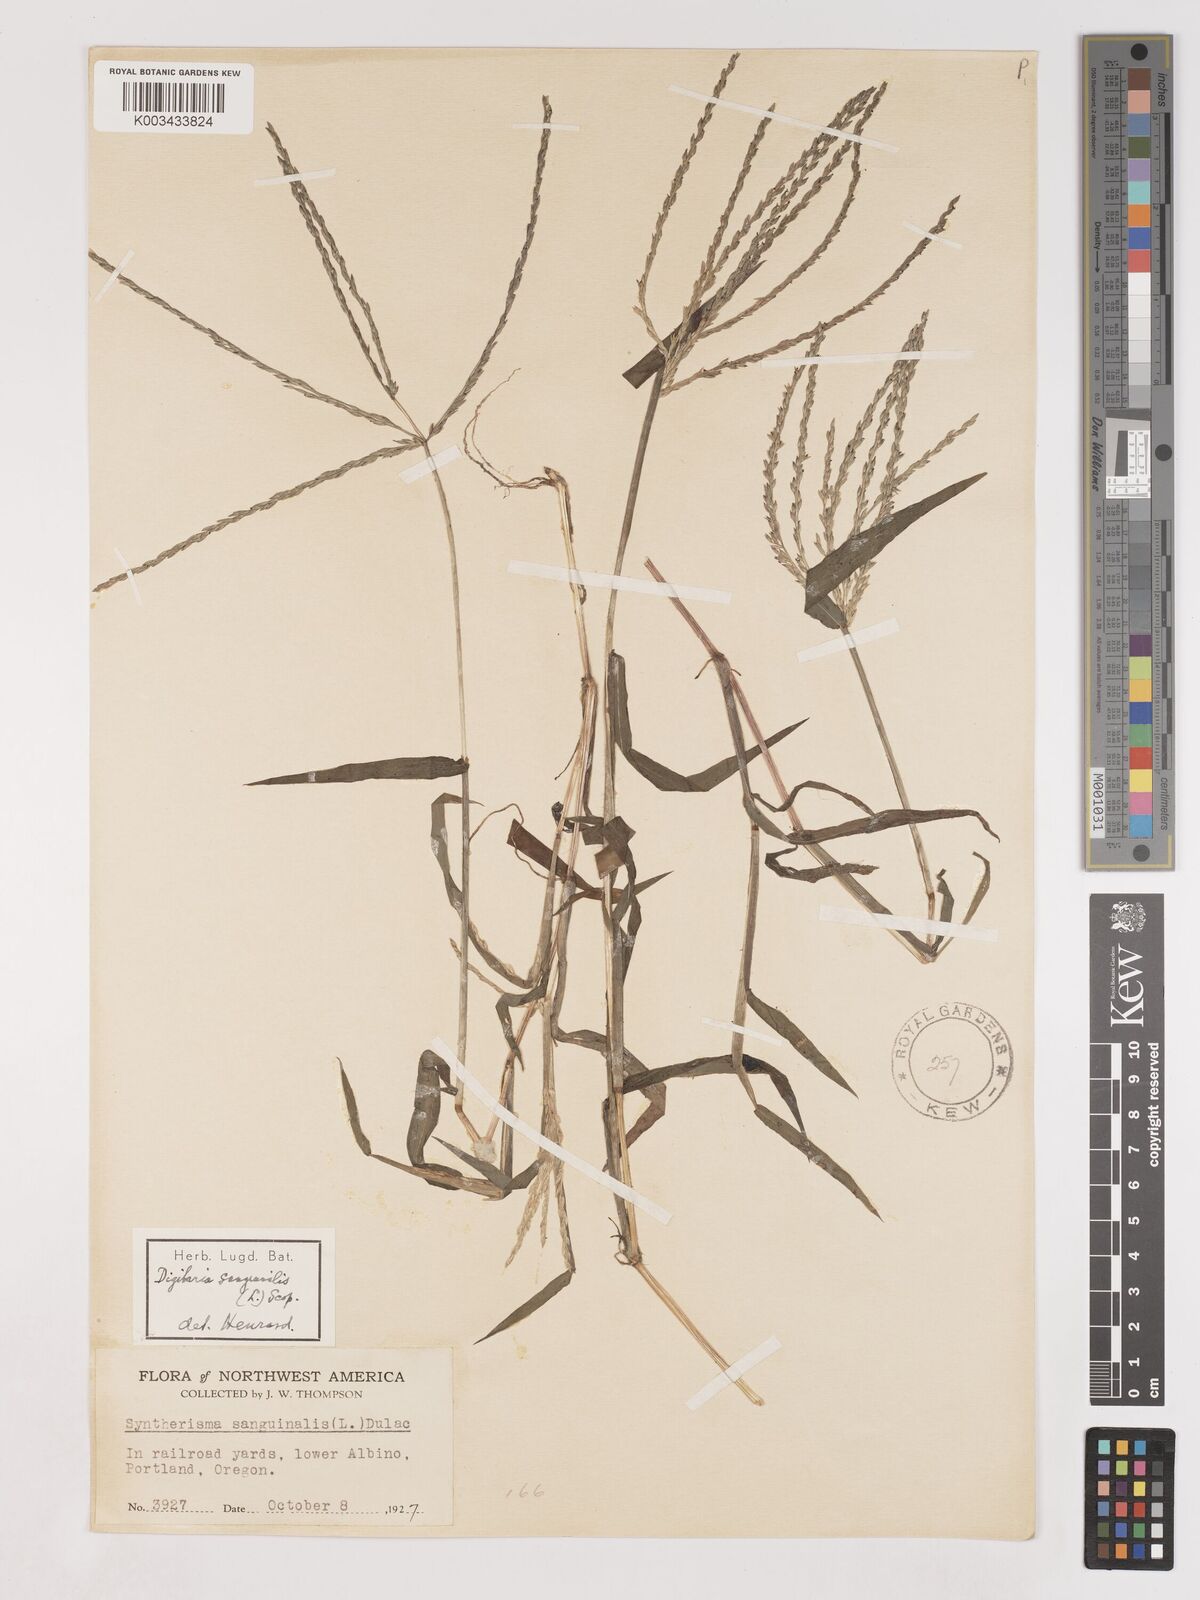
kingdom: Plantae
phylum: Tracheophyta
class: Liliopsida
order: Poales
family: Poaceae
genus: Digitaria
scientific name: Digitaria ciliaris
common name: Tropical finger-grass
